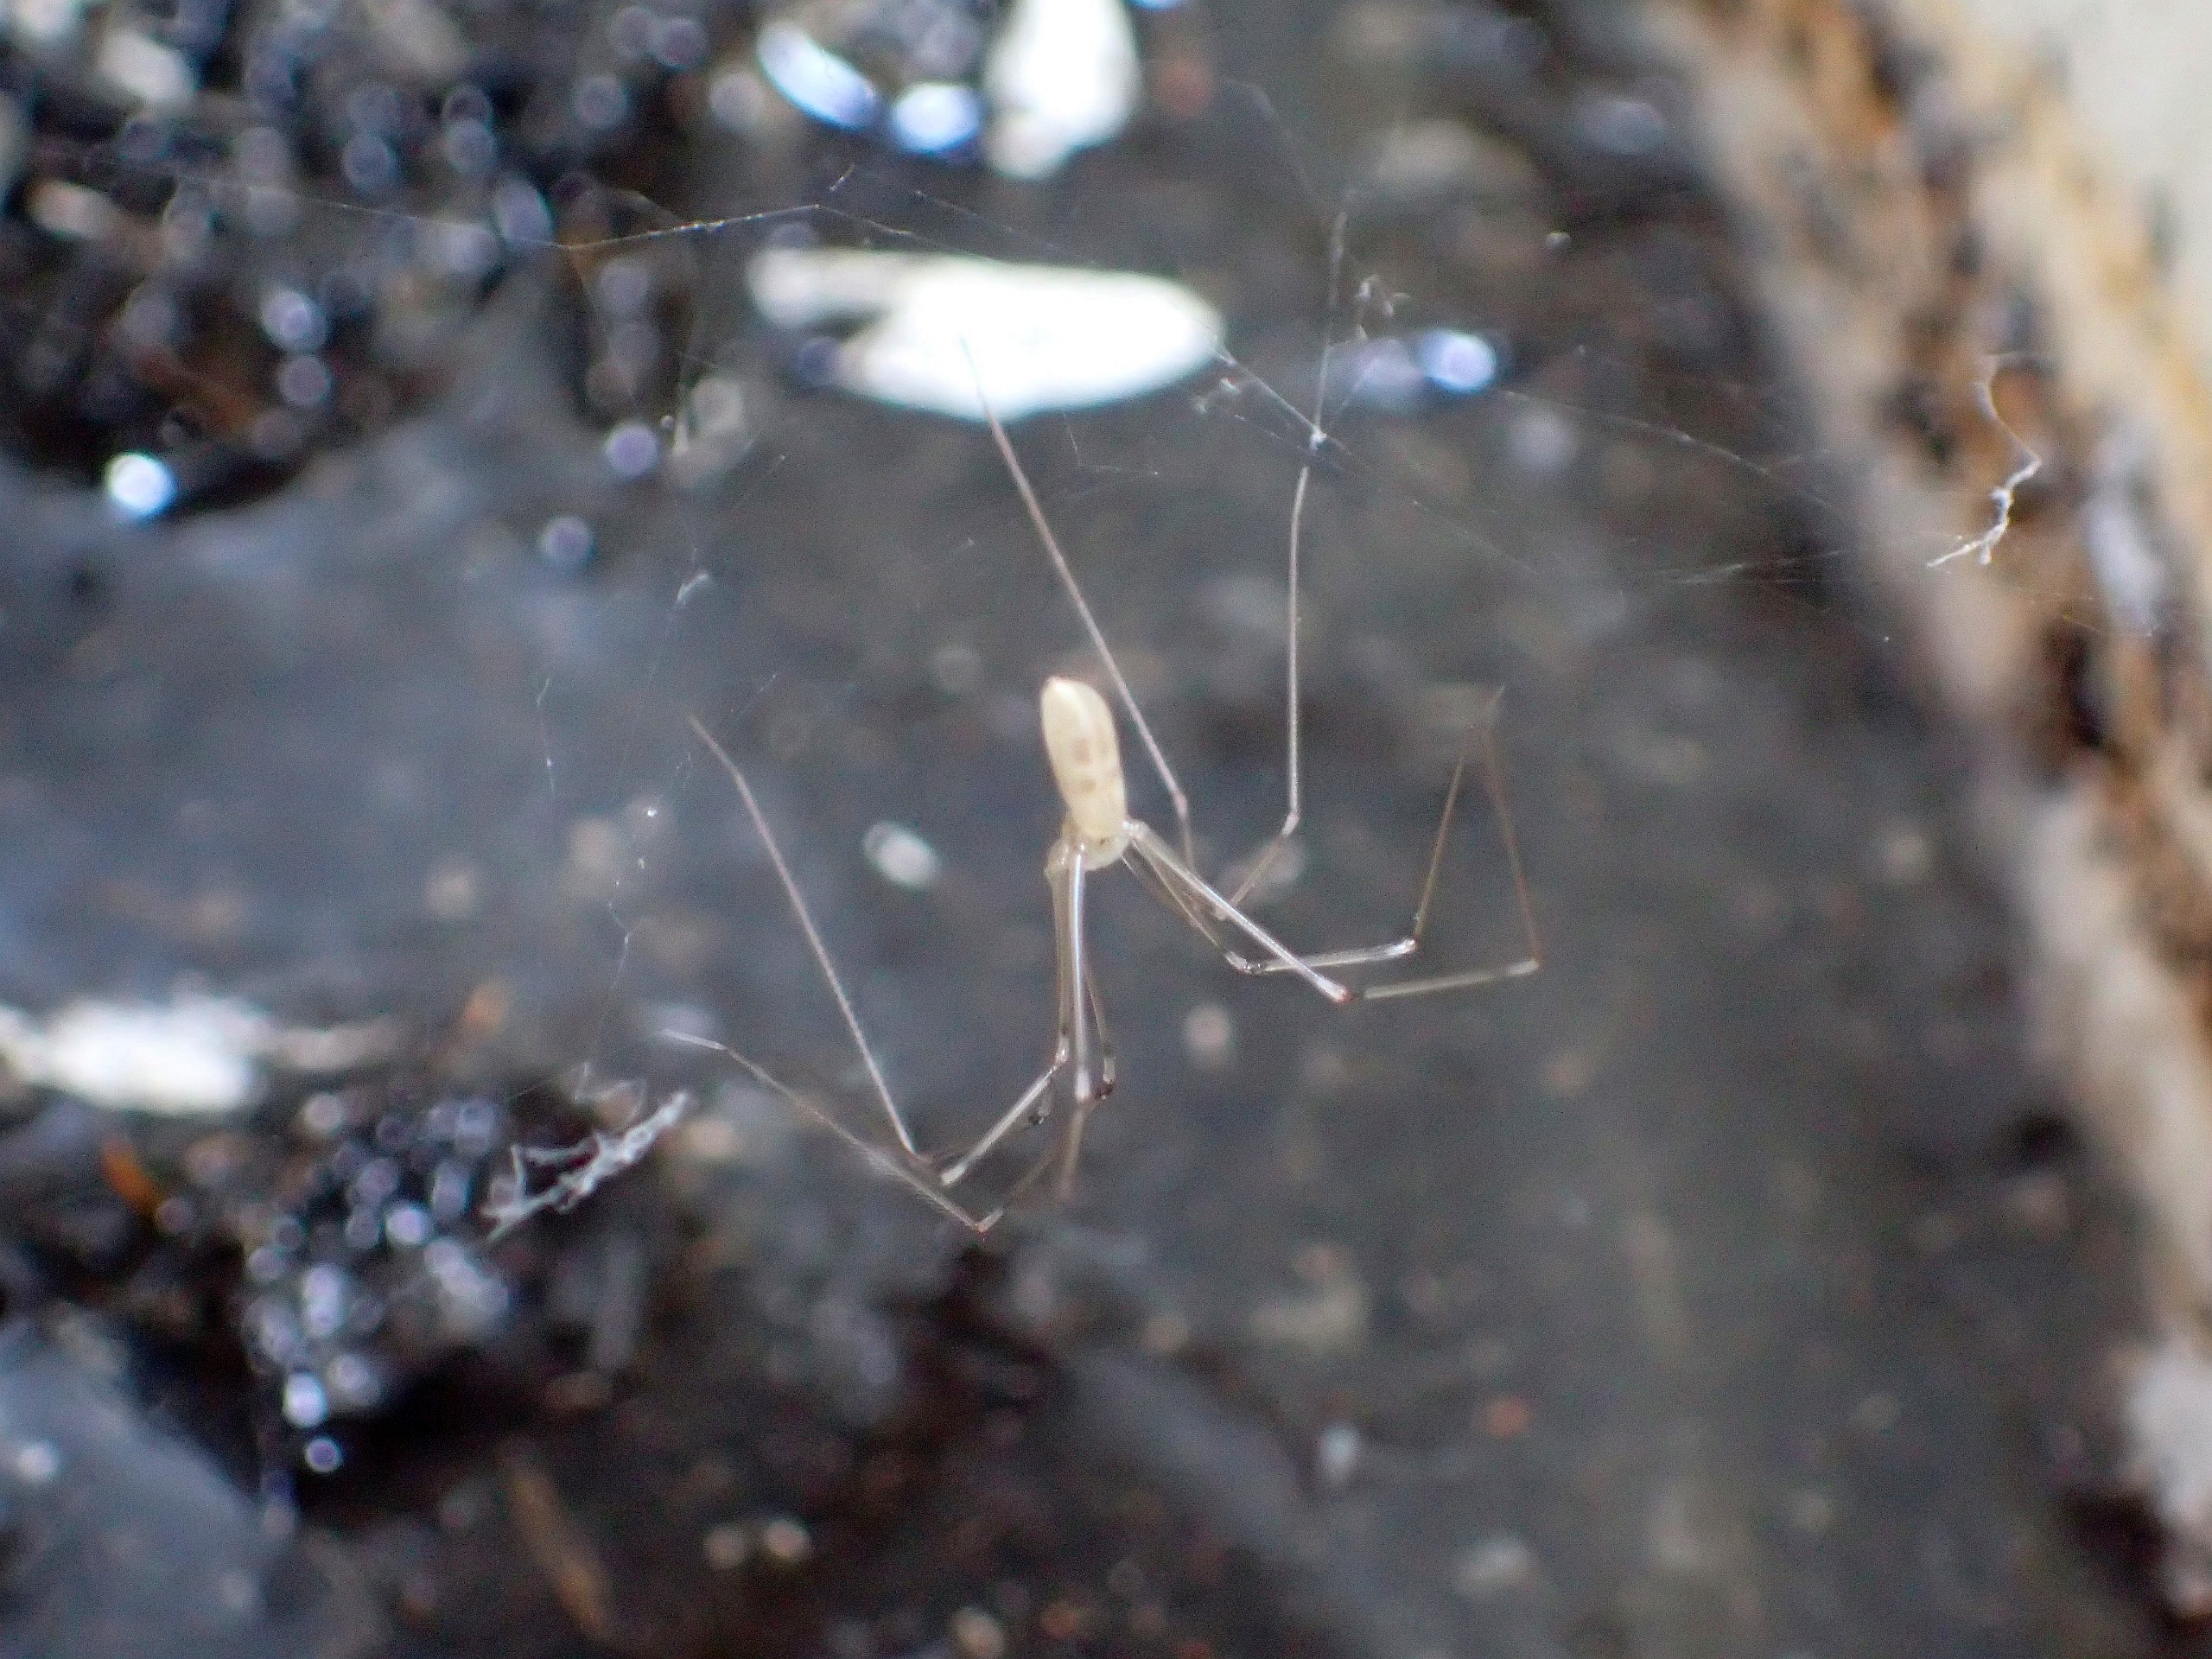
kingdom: Animalia
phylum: Arthropoda
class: Arachnida
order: Araneae
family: Pholcidae
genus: Pholcus
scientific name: Pholcus phalangioides
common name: Mejeredderkop
